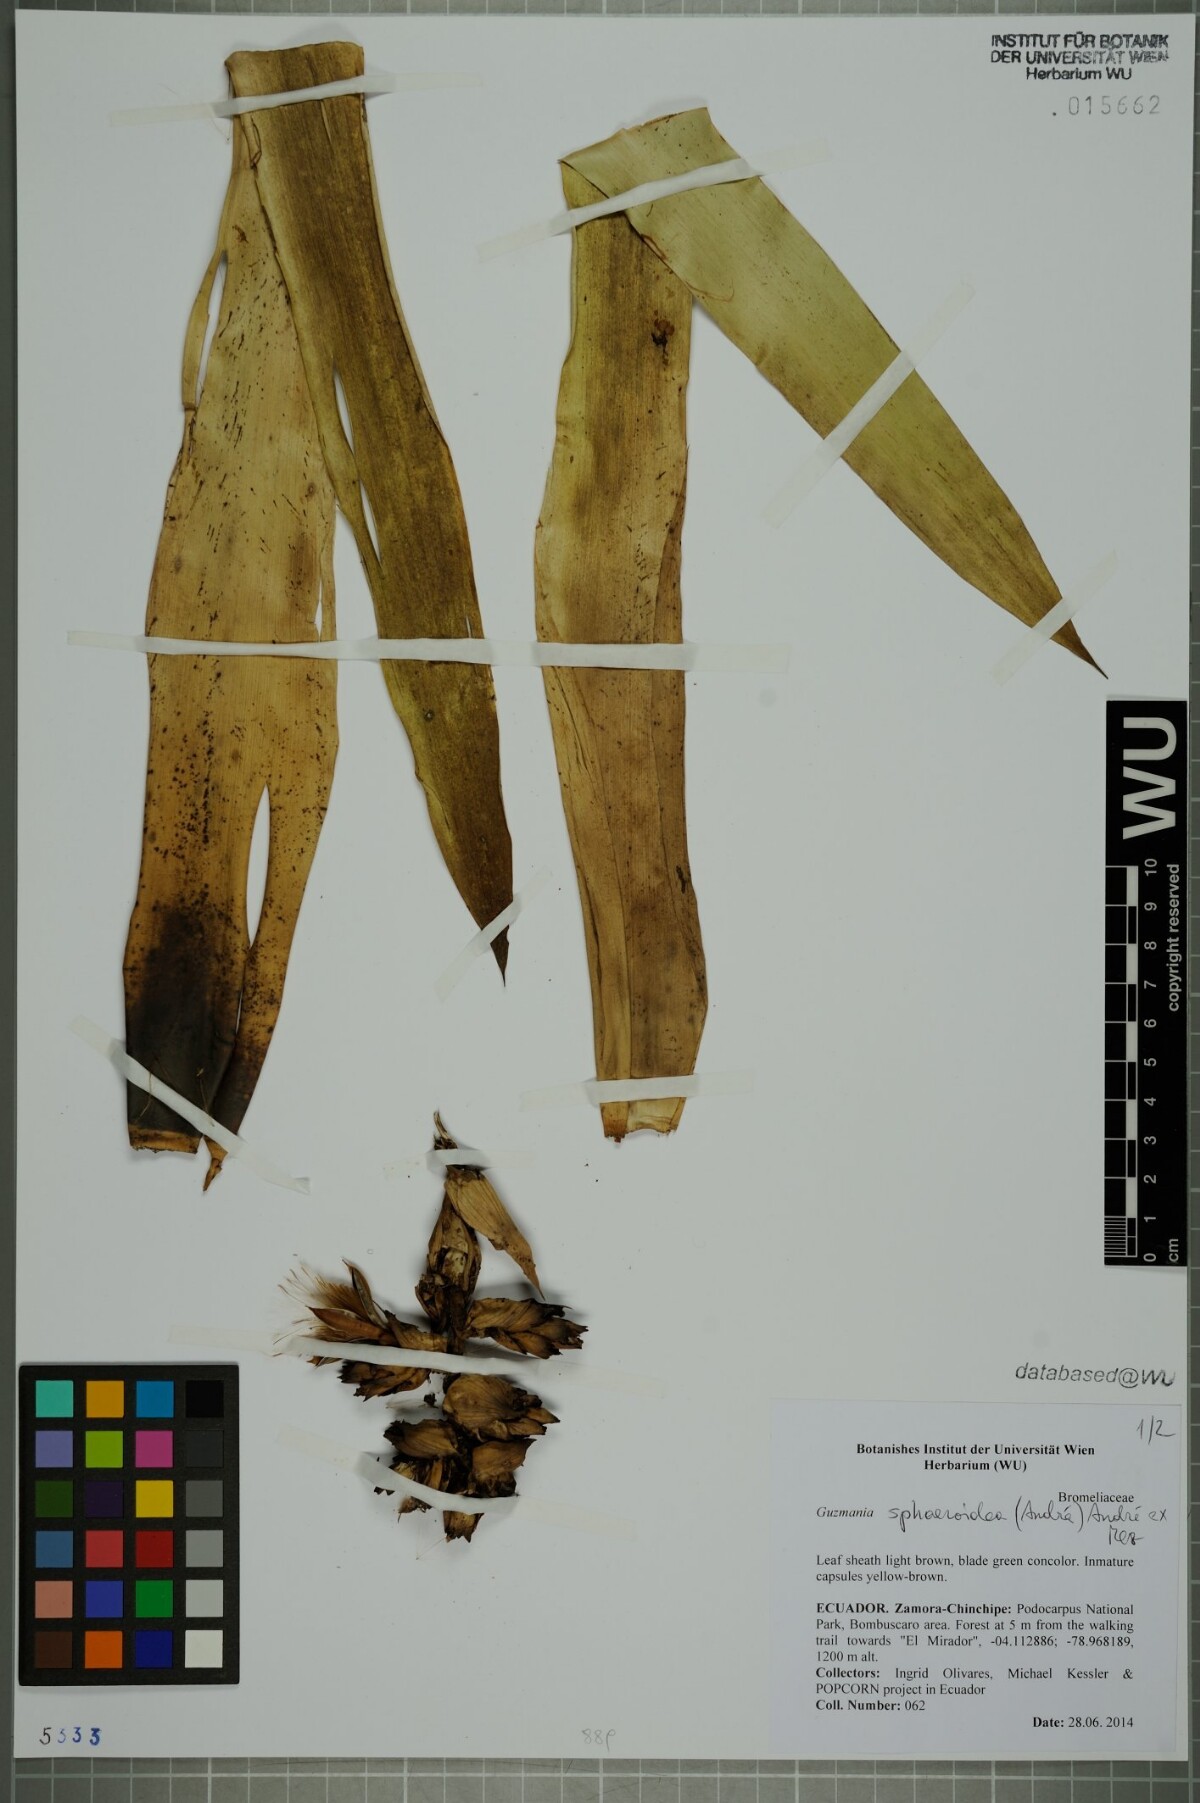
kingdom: Plantae
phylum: Tracheophyta
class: Liliopsida
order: Poales
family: Bromeliaceae
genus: Guzmania
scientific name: Guzmania sphaeroidea
